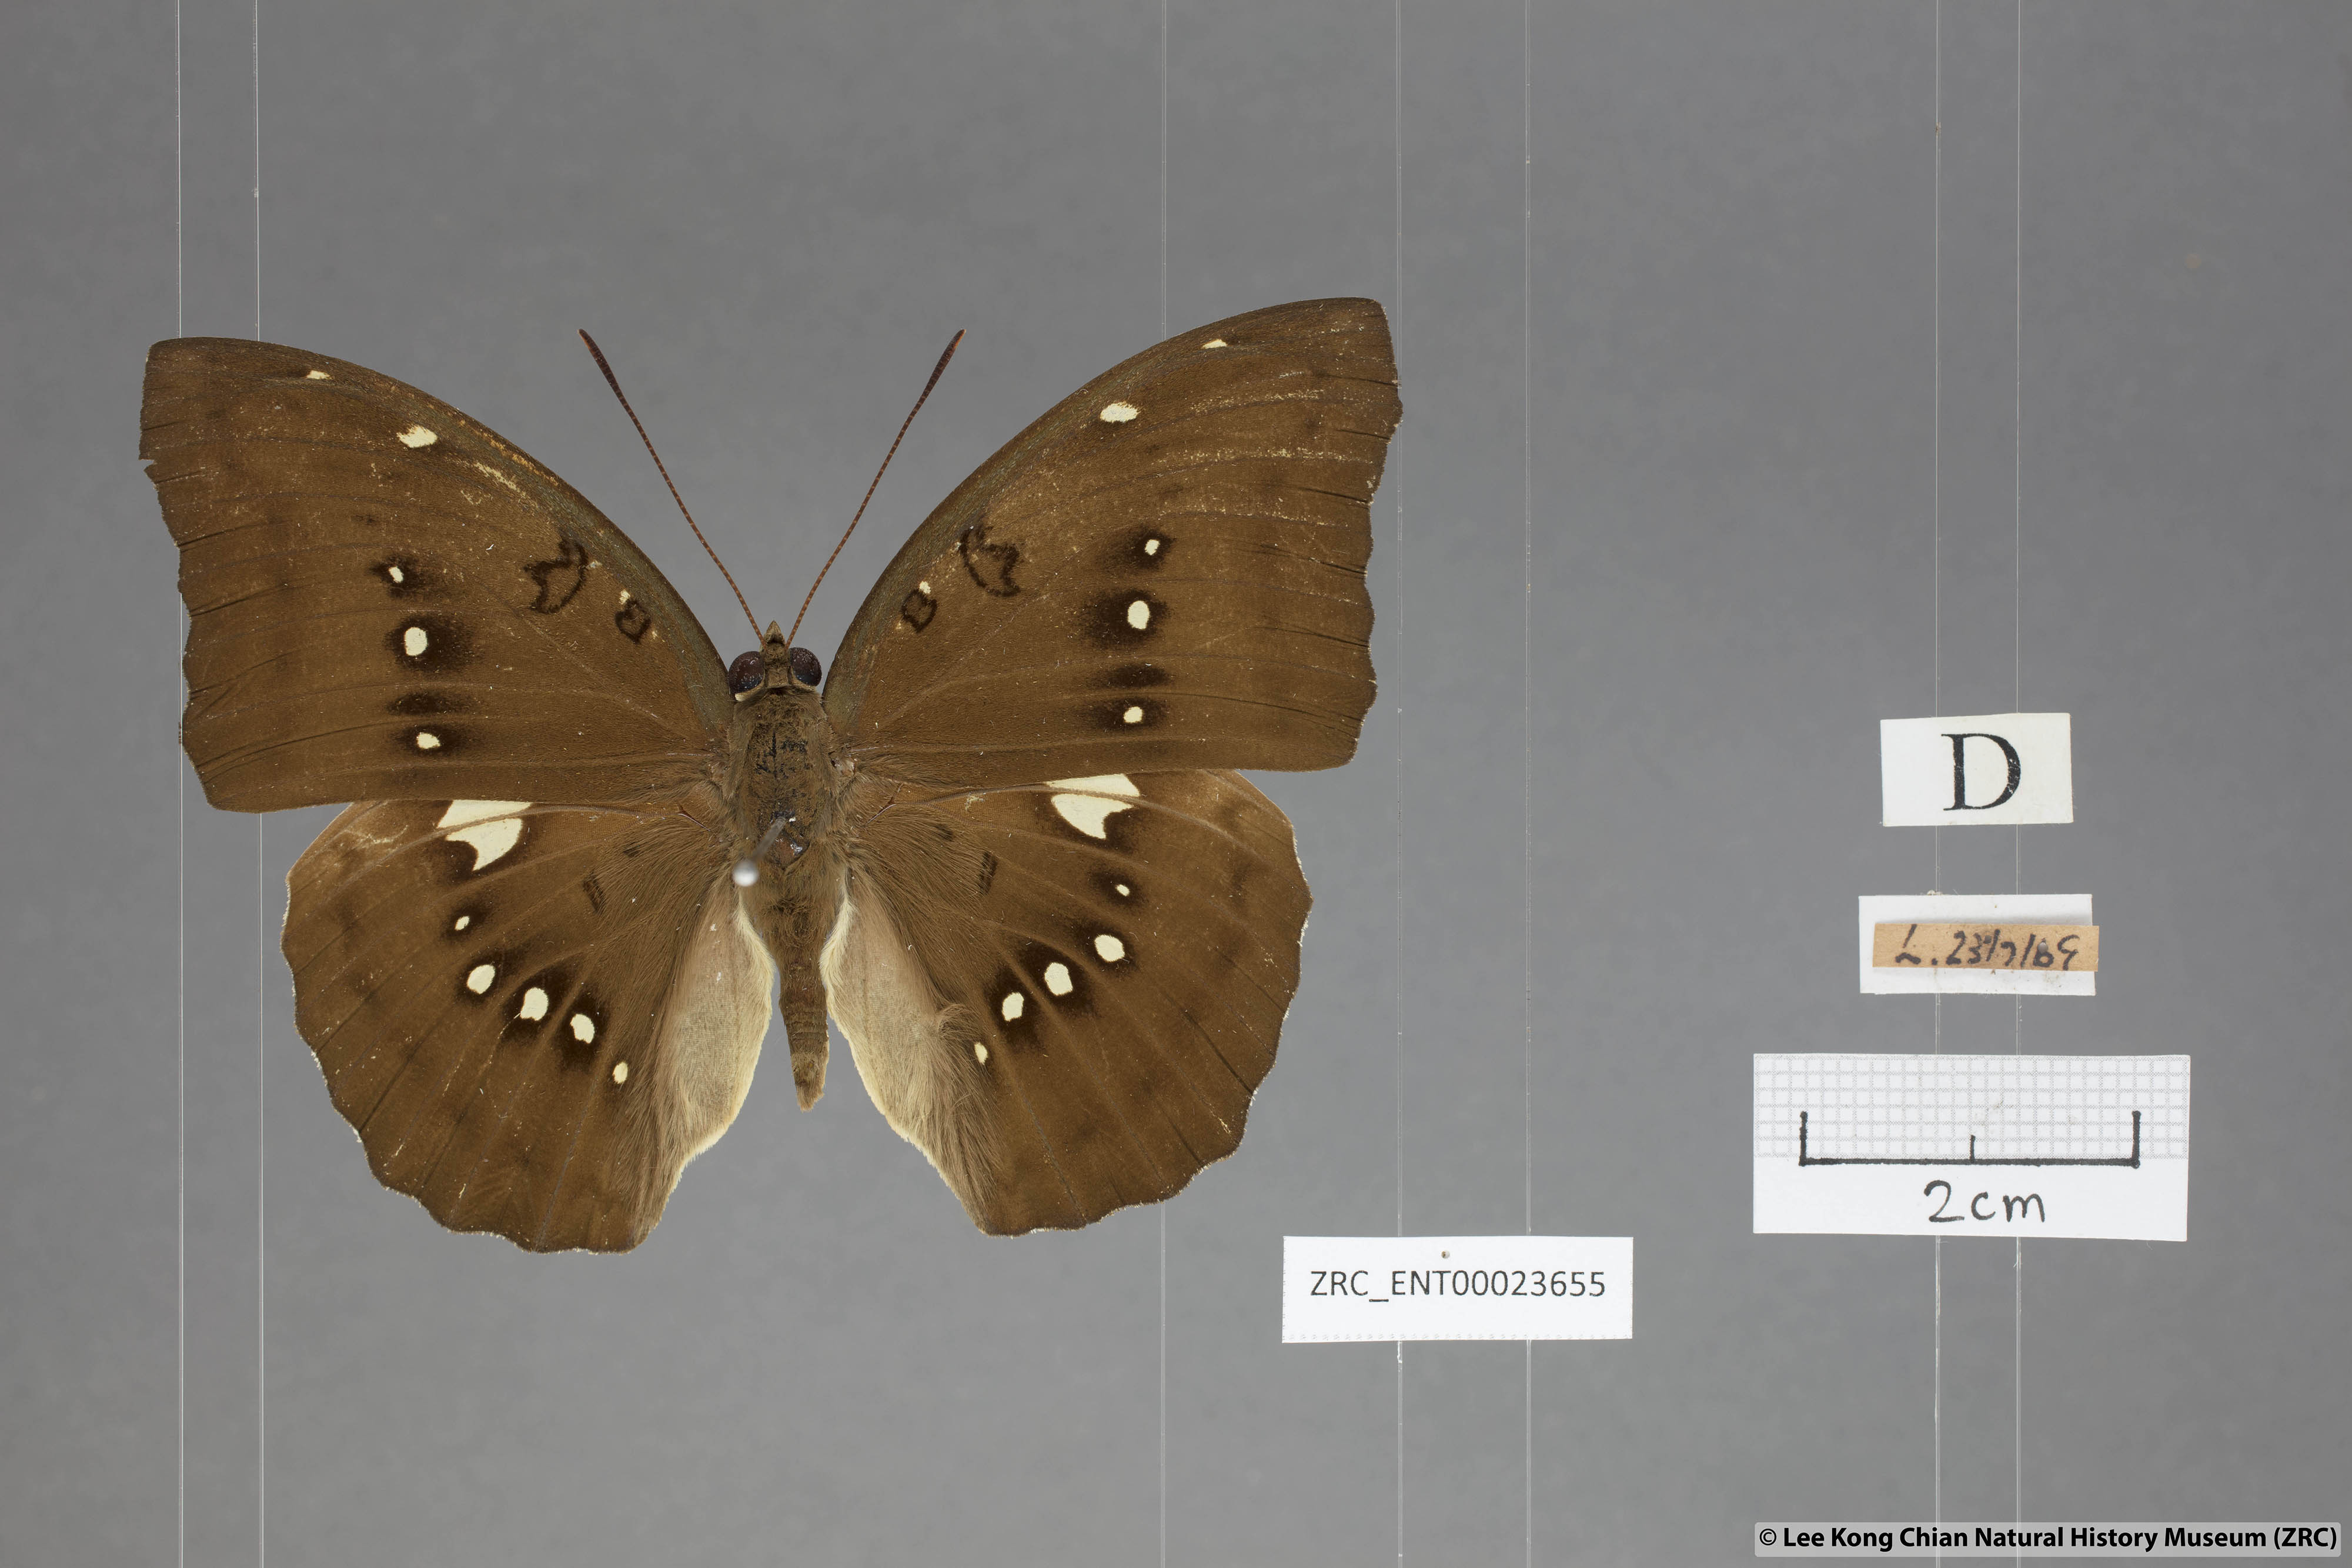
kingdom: Animalia
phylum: Arthropoda
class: Insecta
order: Lepidoptera
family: Nymphalidae
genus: Euthalia
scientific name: Euthalia Bassarona dunya
